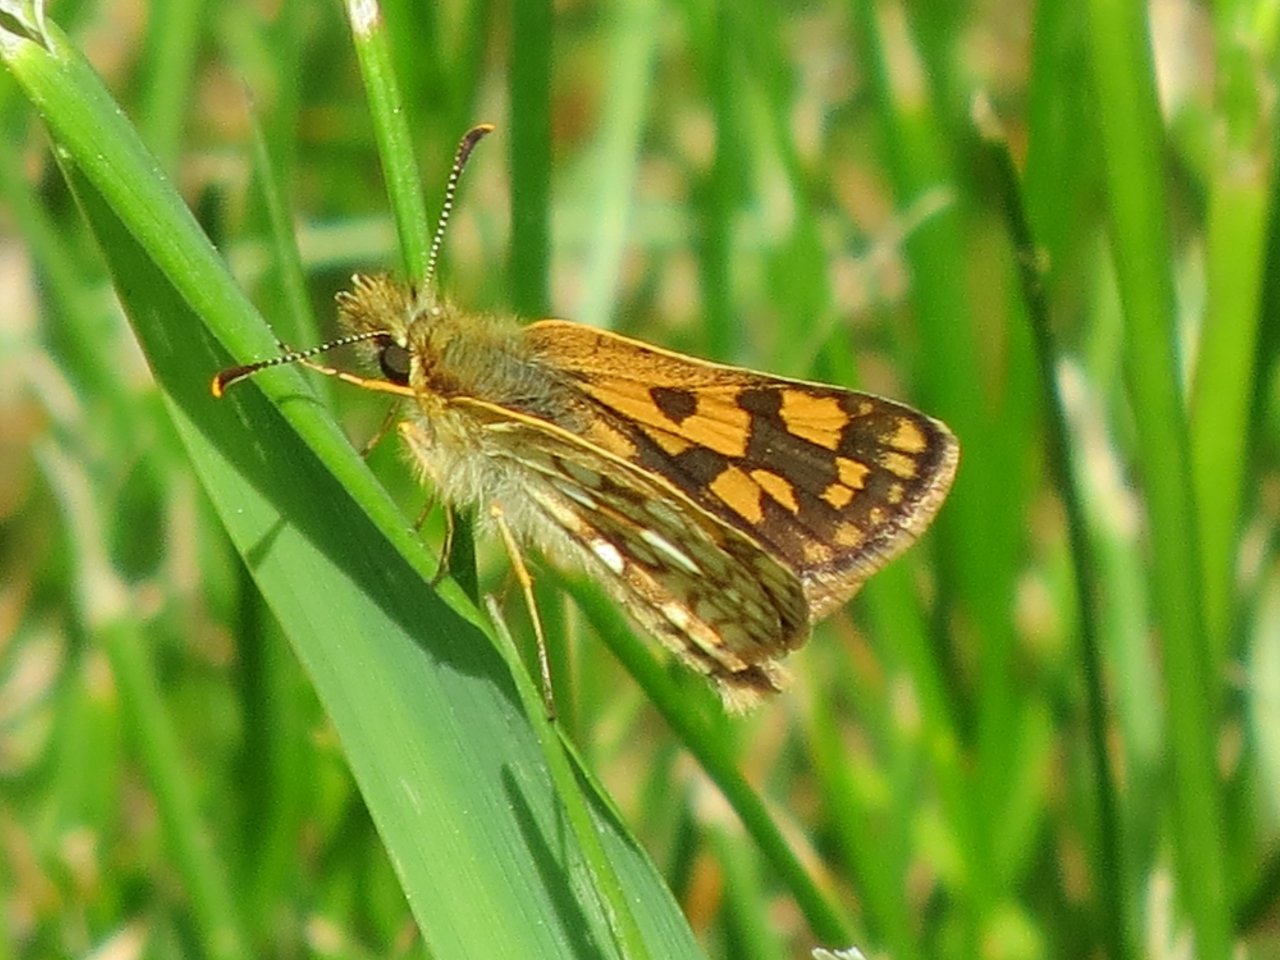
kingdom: Animalia
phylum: Arthropoda
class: Insecta
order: Lepidoptera
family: Hesperiidae
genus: Carterocephalus
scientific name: Carterocephalus palaemon
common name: Chequered Skipper
